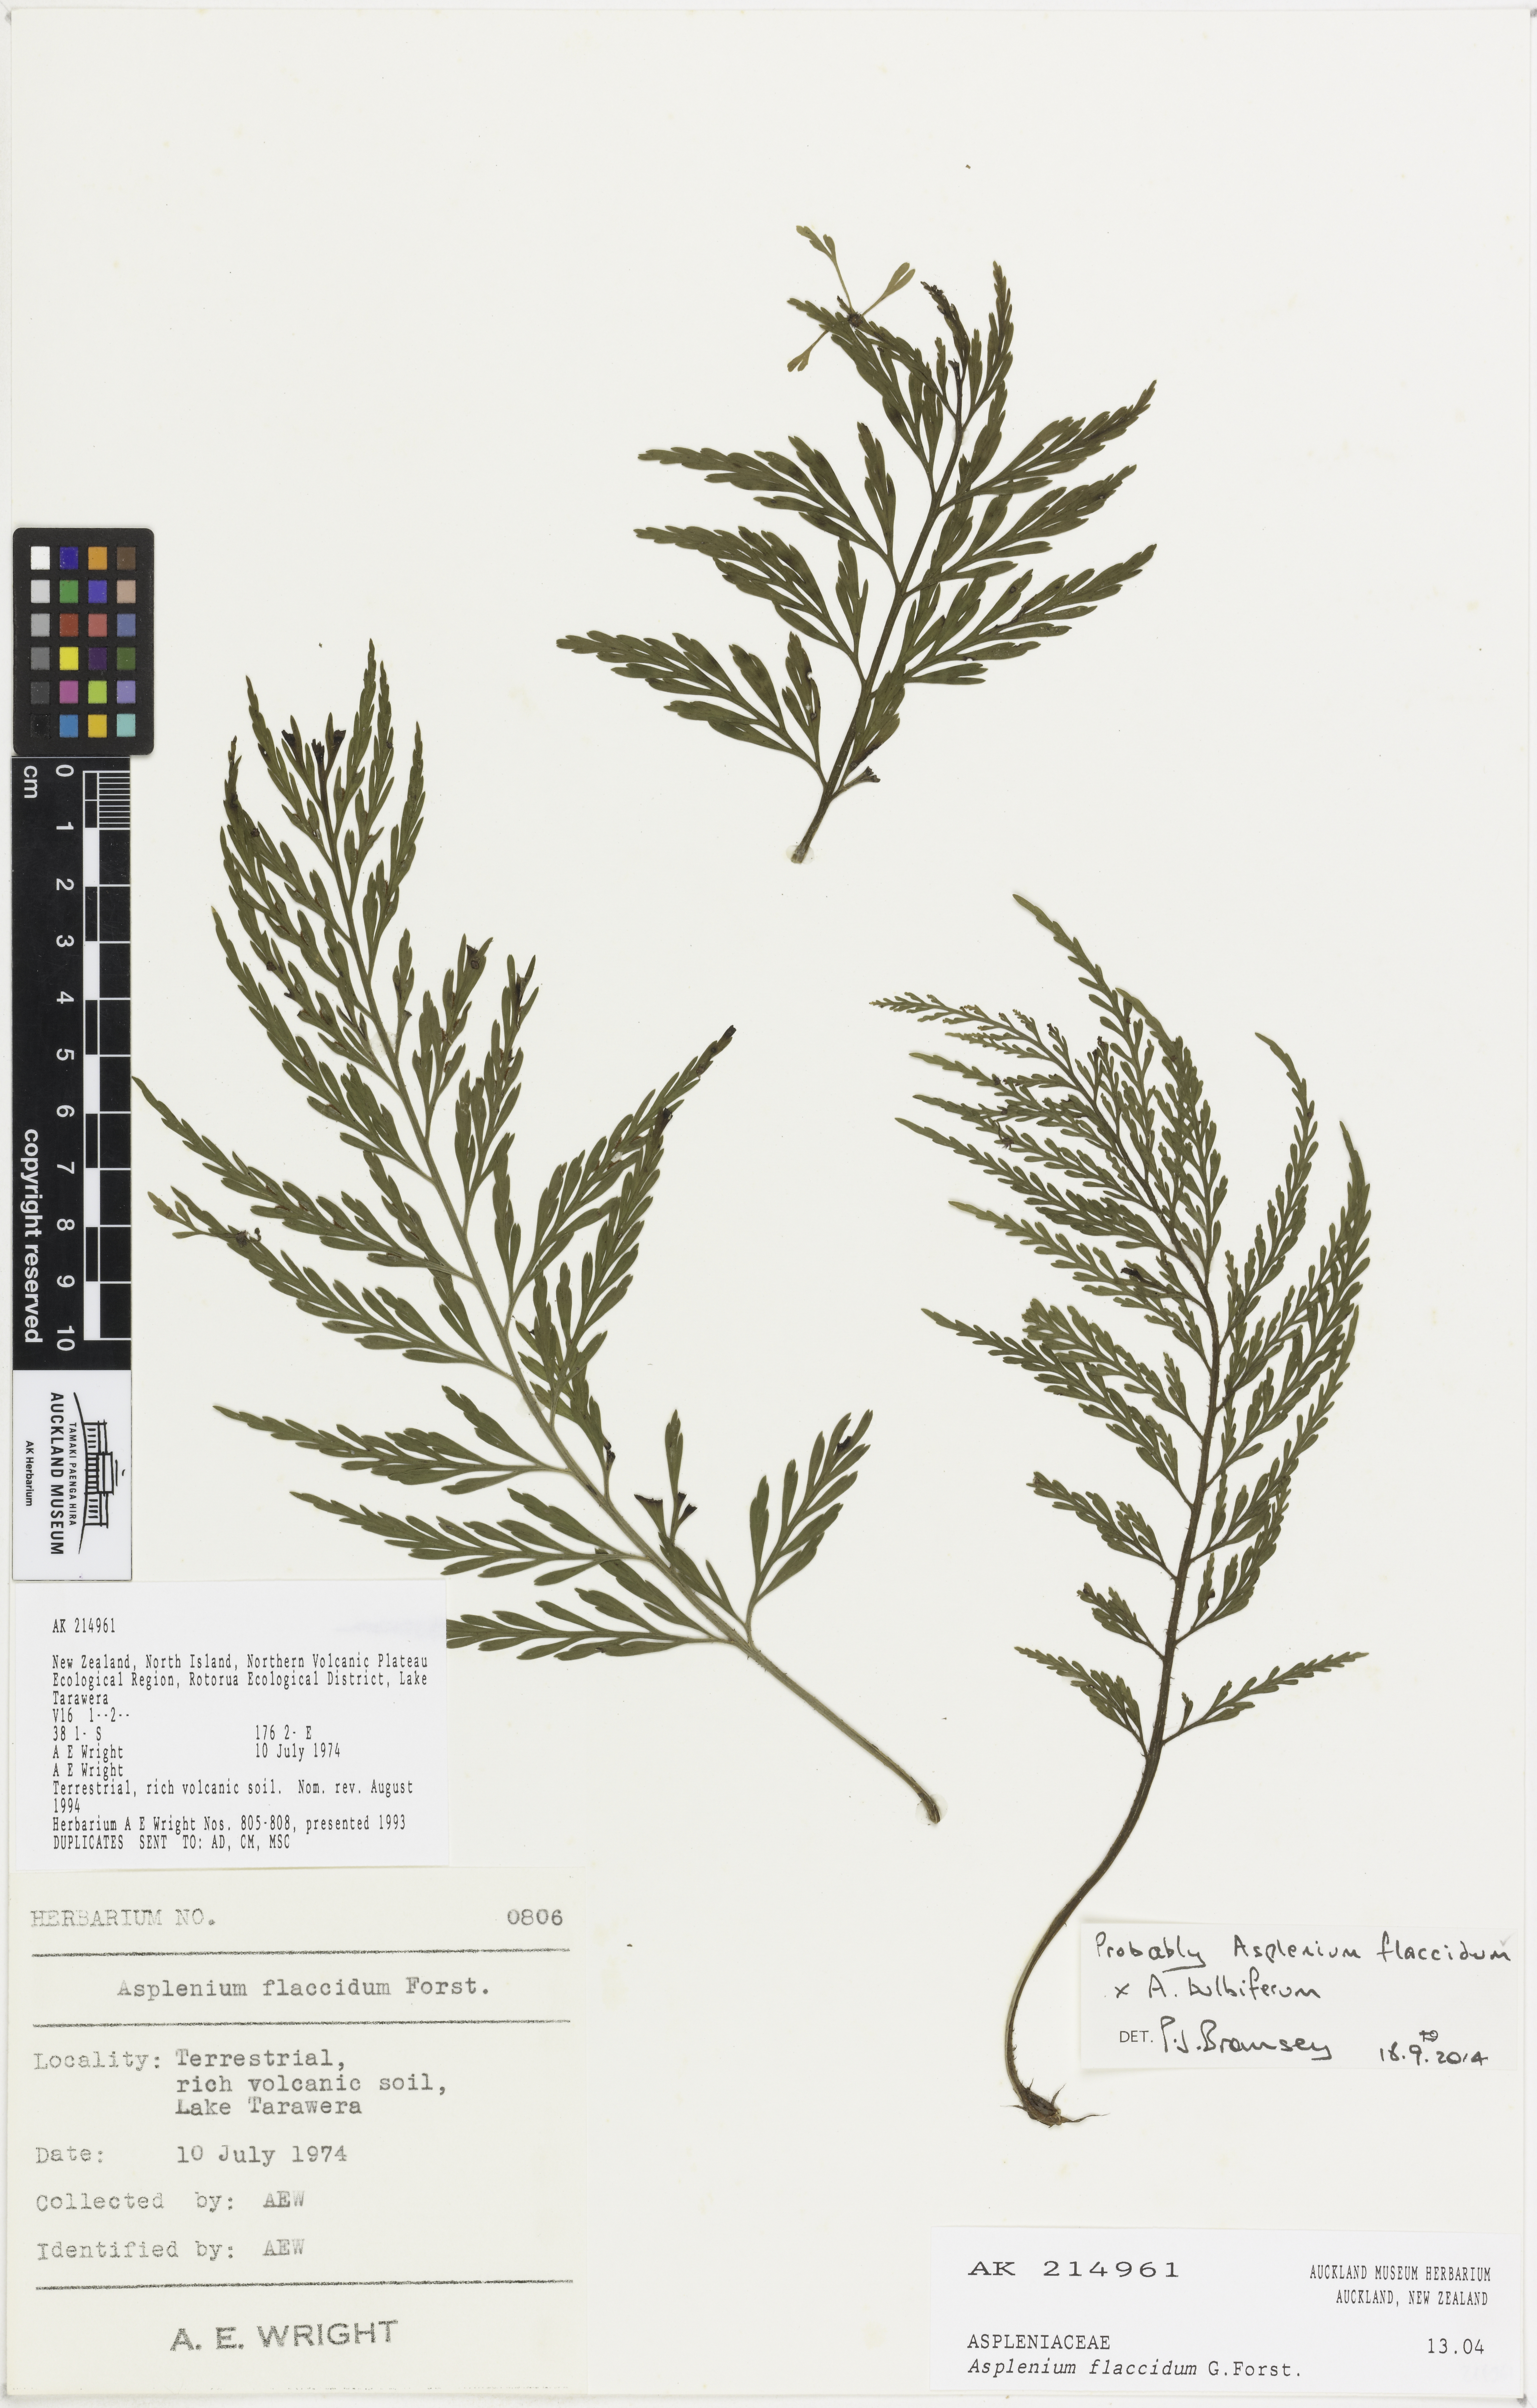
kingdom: Plantae
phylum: Tracheophyta
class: Polypodiopsida
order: Polypodiales
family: Aspleniaceae
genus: Asplenium
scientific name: Asplenium
